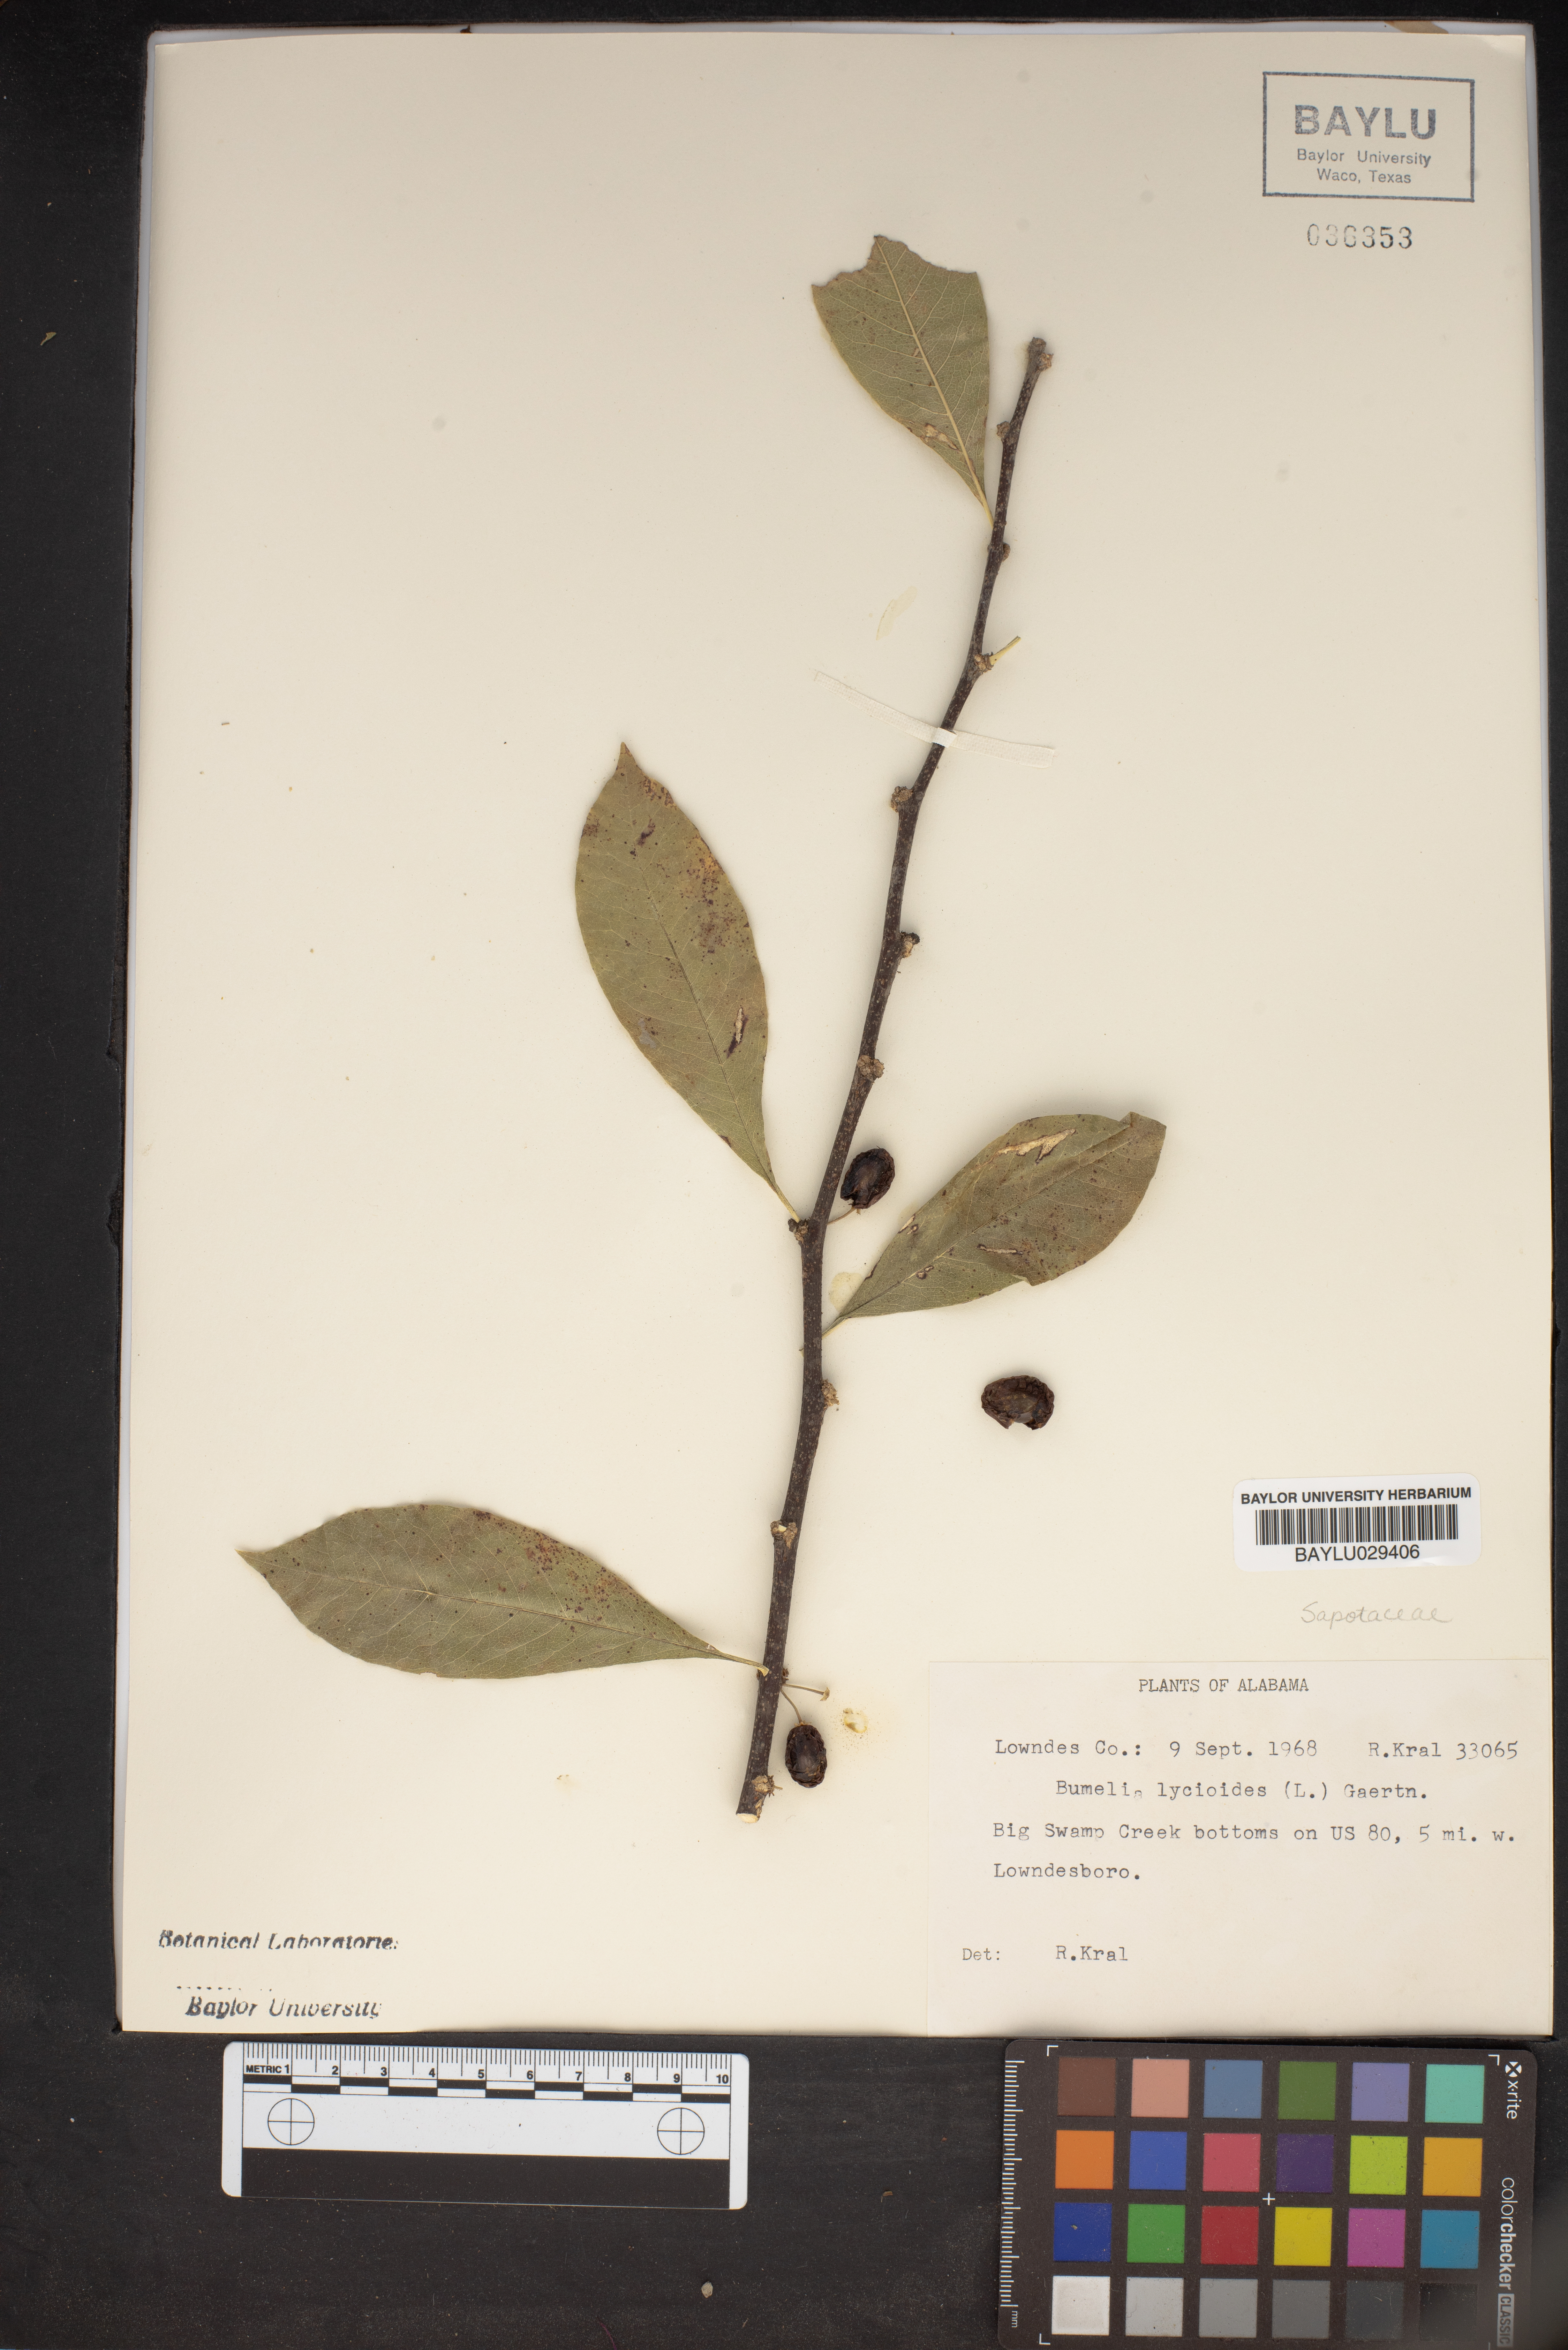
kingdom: Plantae
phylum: Tracheophyta
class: Magnoliopsida
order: Ericales
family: Sapotaceae
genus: Sideroxylon
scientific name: Sideroxylon lycioides
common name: Buckthorn bumelia
